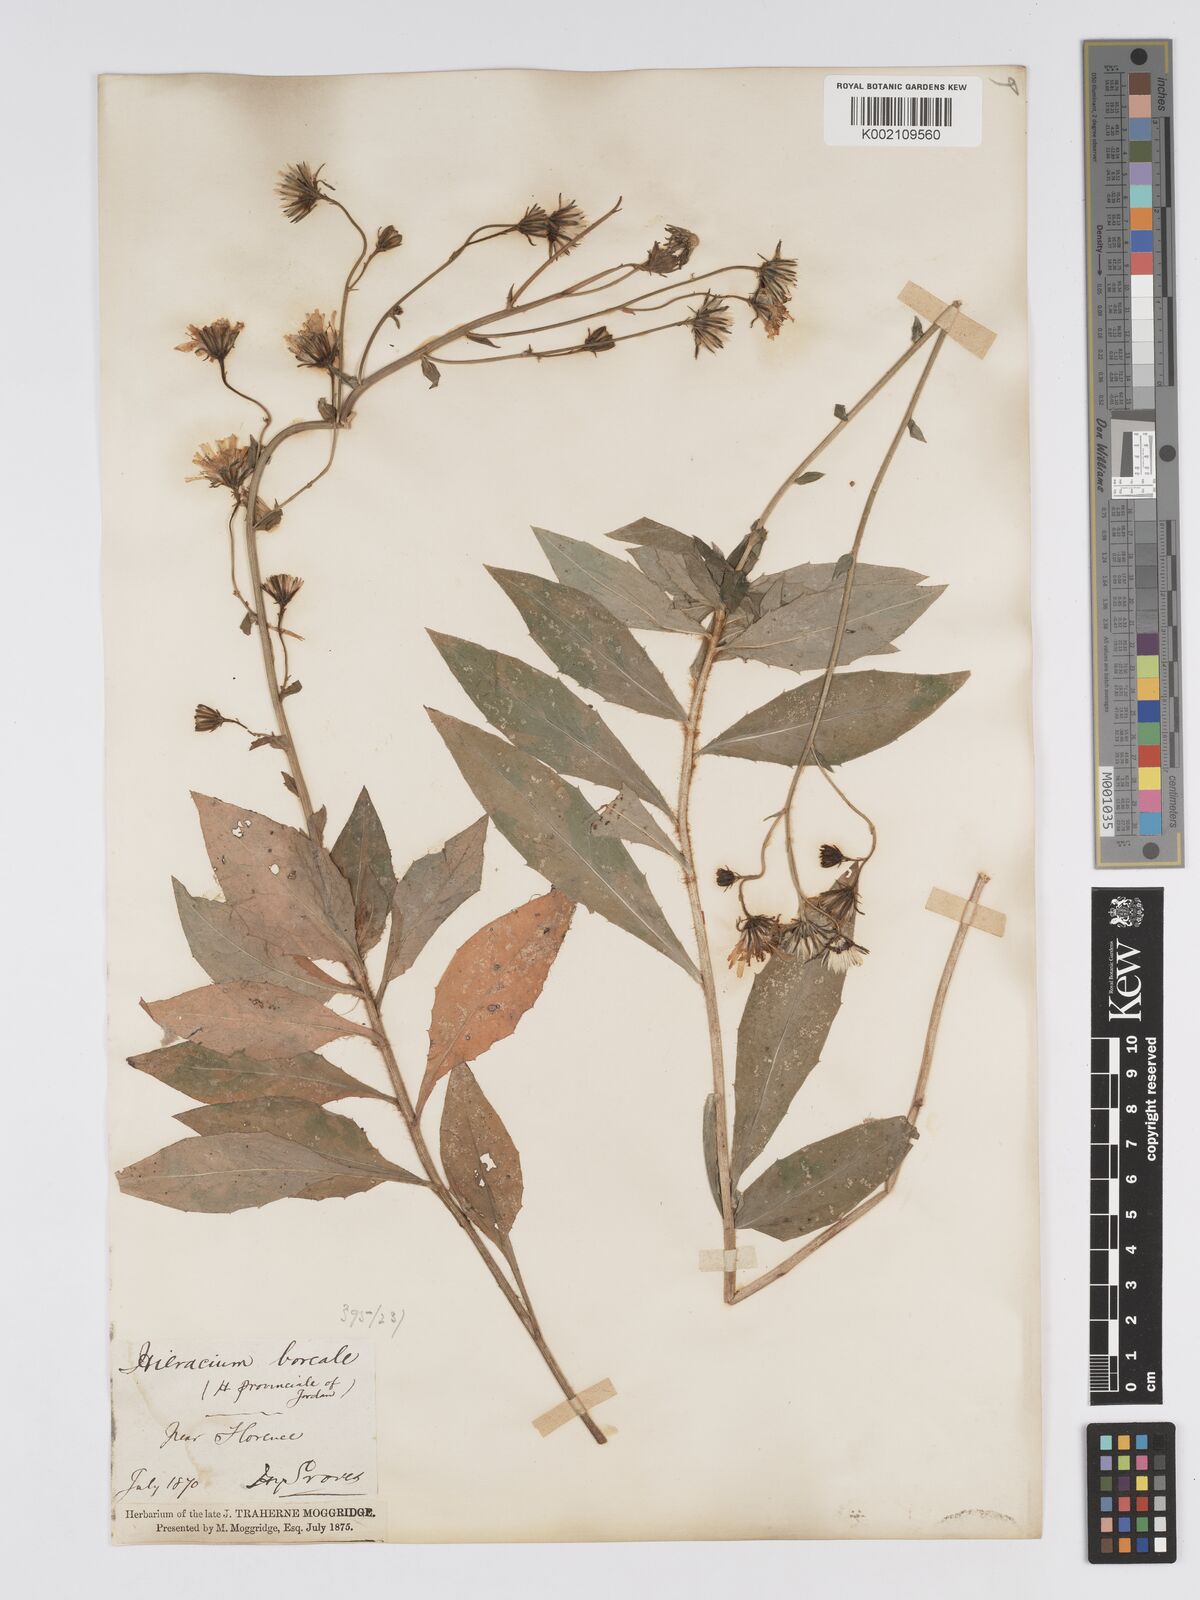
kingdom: Plantae
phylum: Tracheophyta
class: Magnoliopsida
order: Asterales
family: Asteraceae
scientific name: Asteraceae
